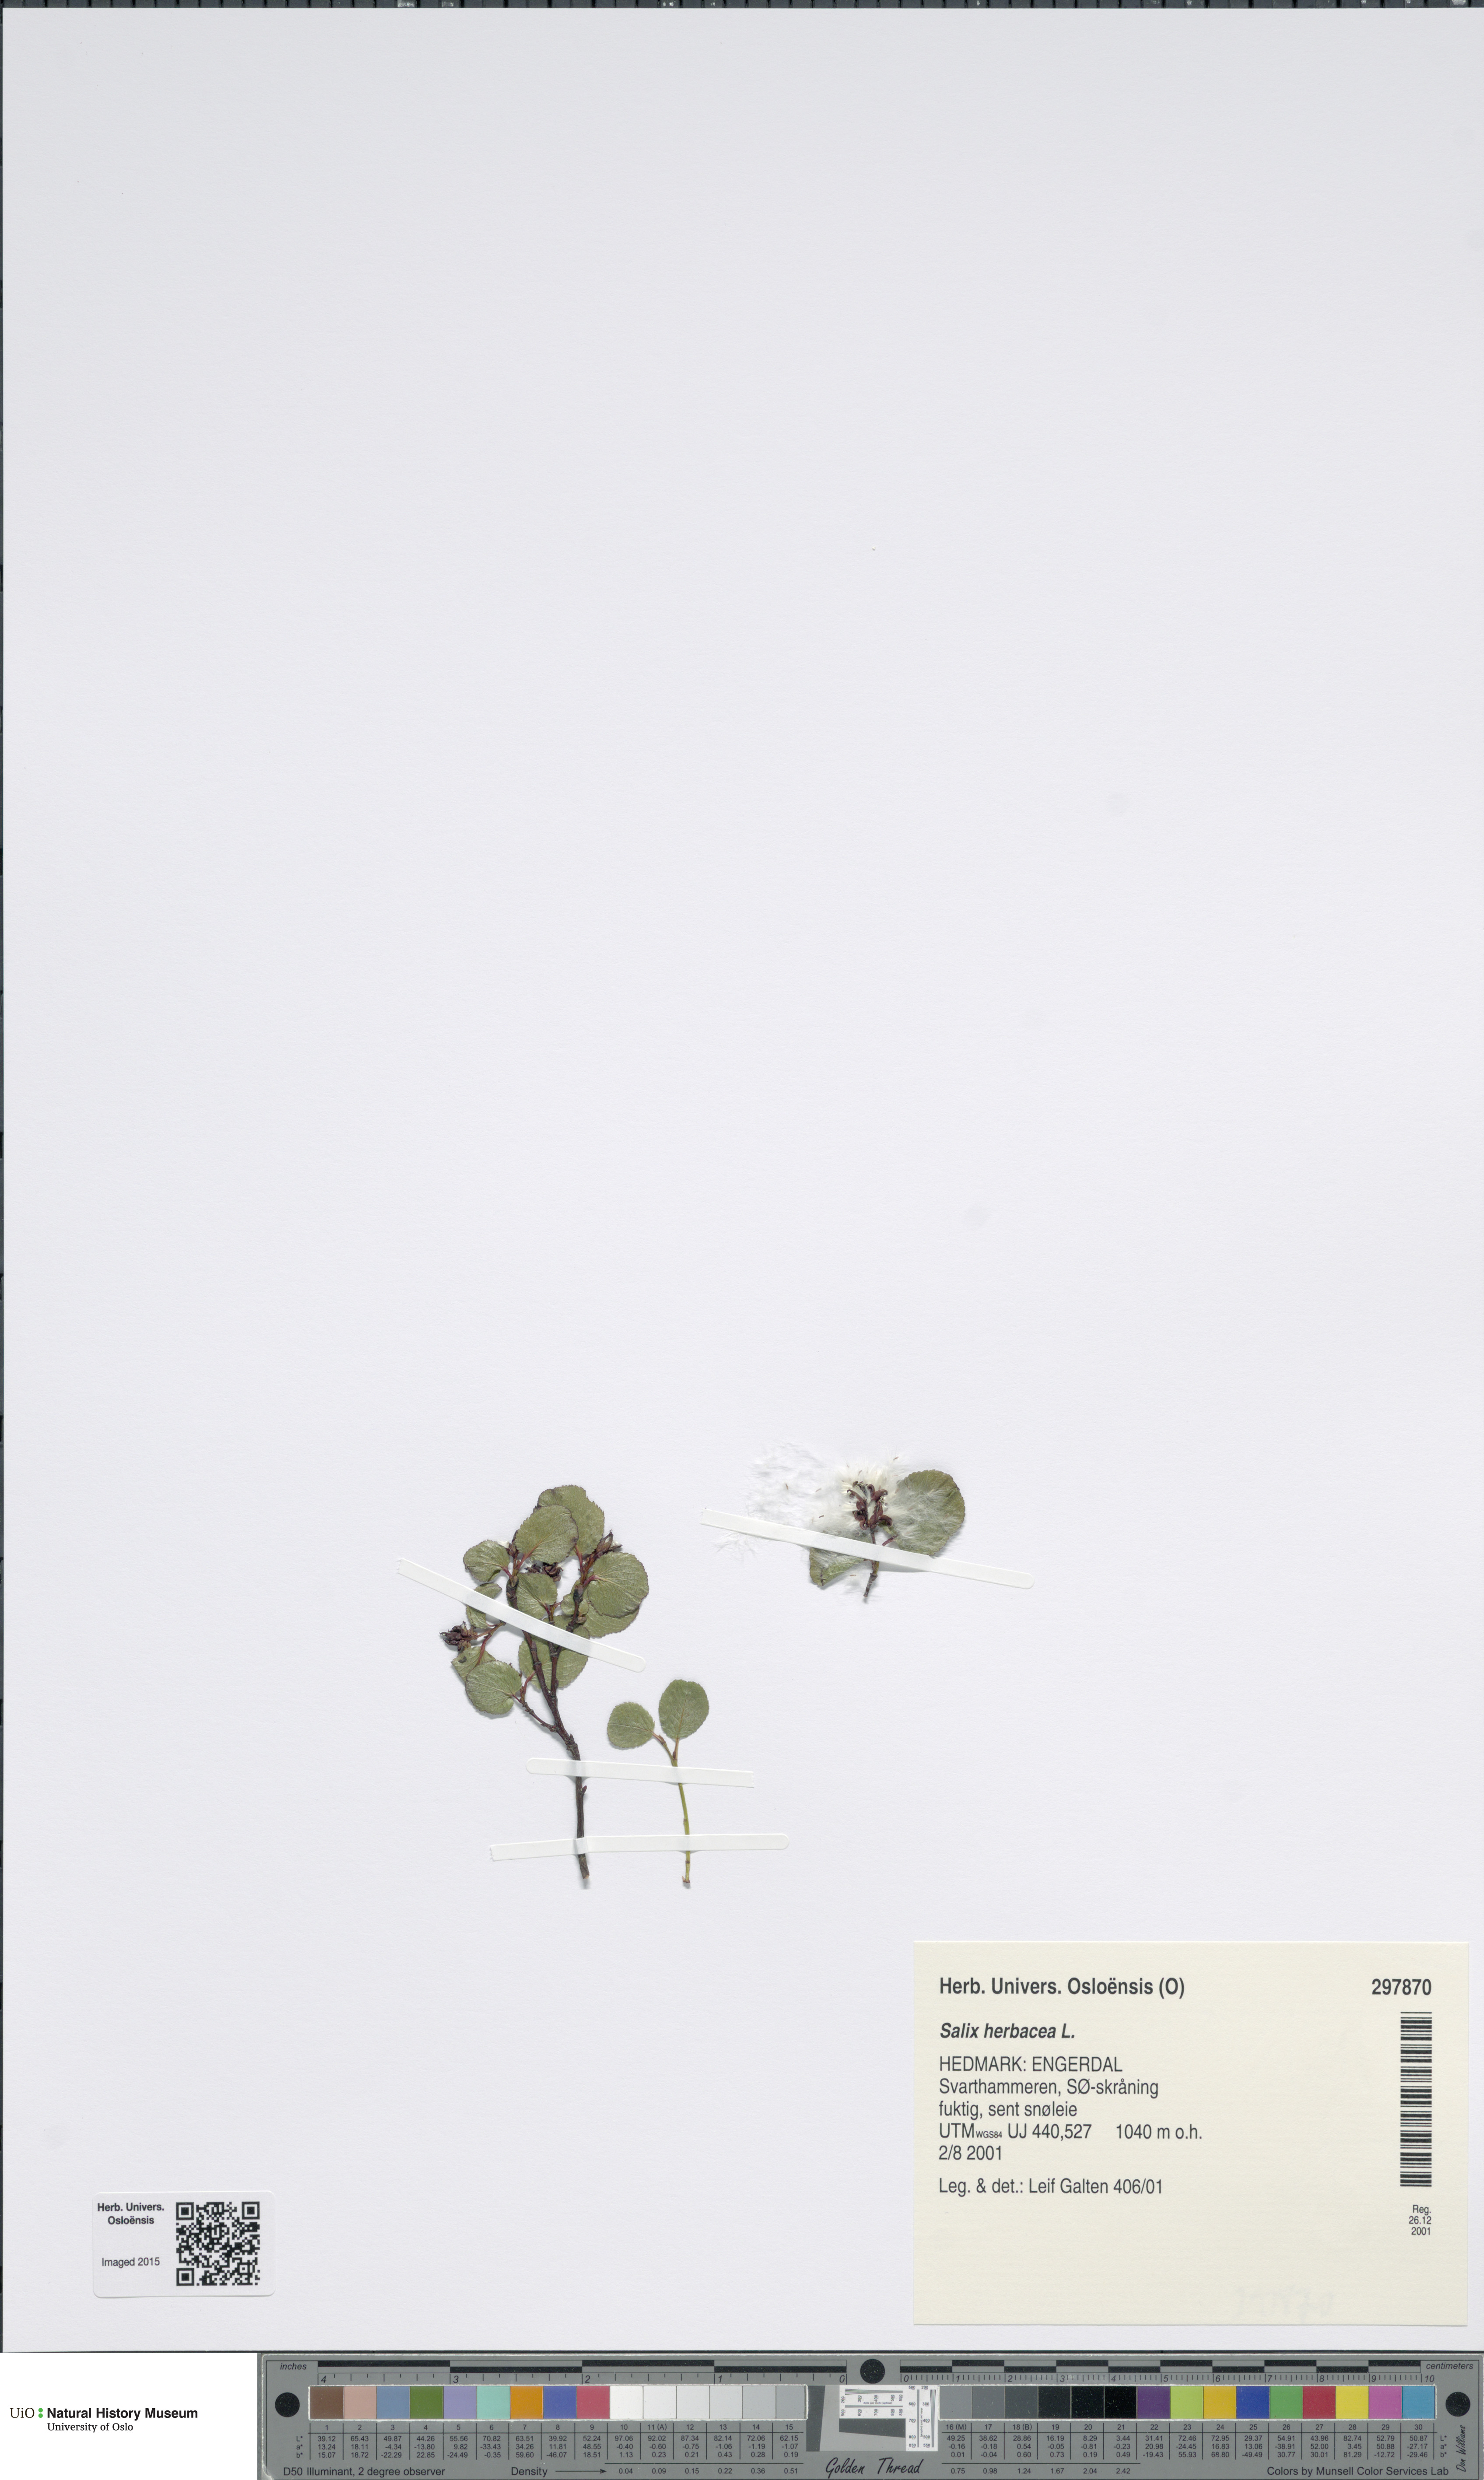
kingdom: Plantae
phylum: Tracheophyta
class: Magnoliopsida
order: Malpighiales
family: Salicaceae
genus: Salix
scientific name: Salix herbacea
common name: Dwarf willow
